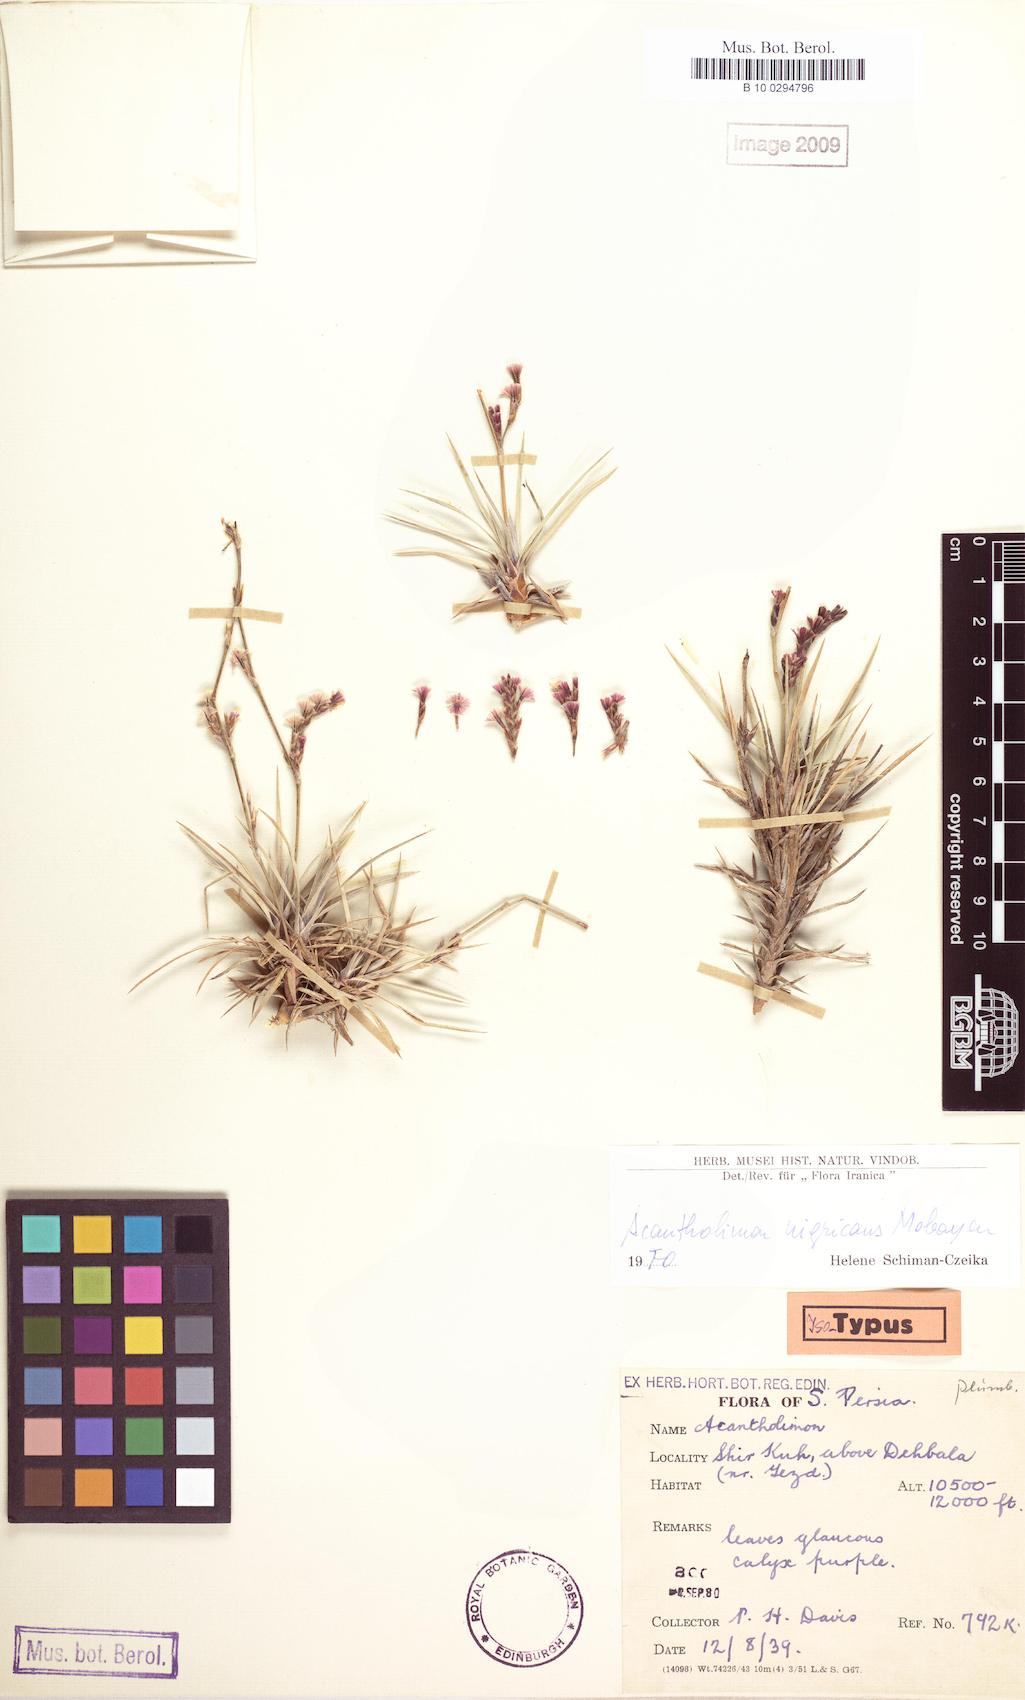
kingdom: Plantae
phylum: Tracheophyta
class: Magnoliopsida
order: Caryophyllales
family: Plumbaginaceae
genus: Acantholimon
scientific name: Acantholimon nigricans
